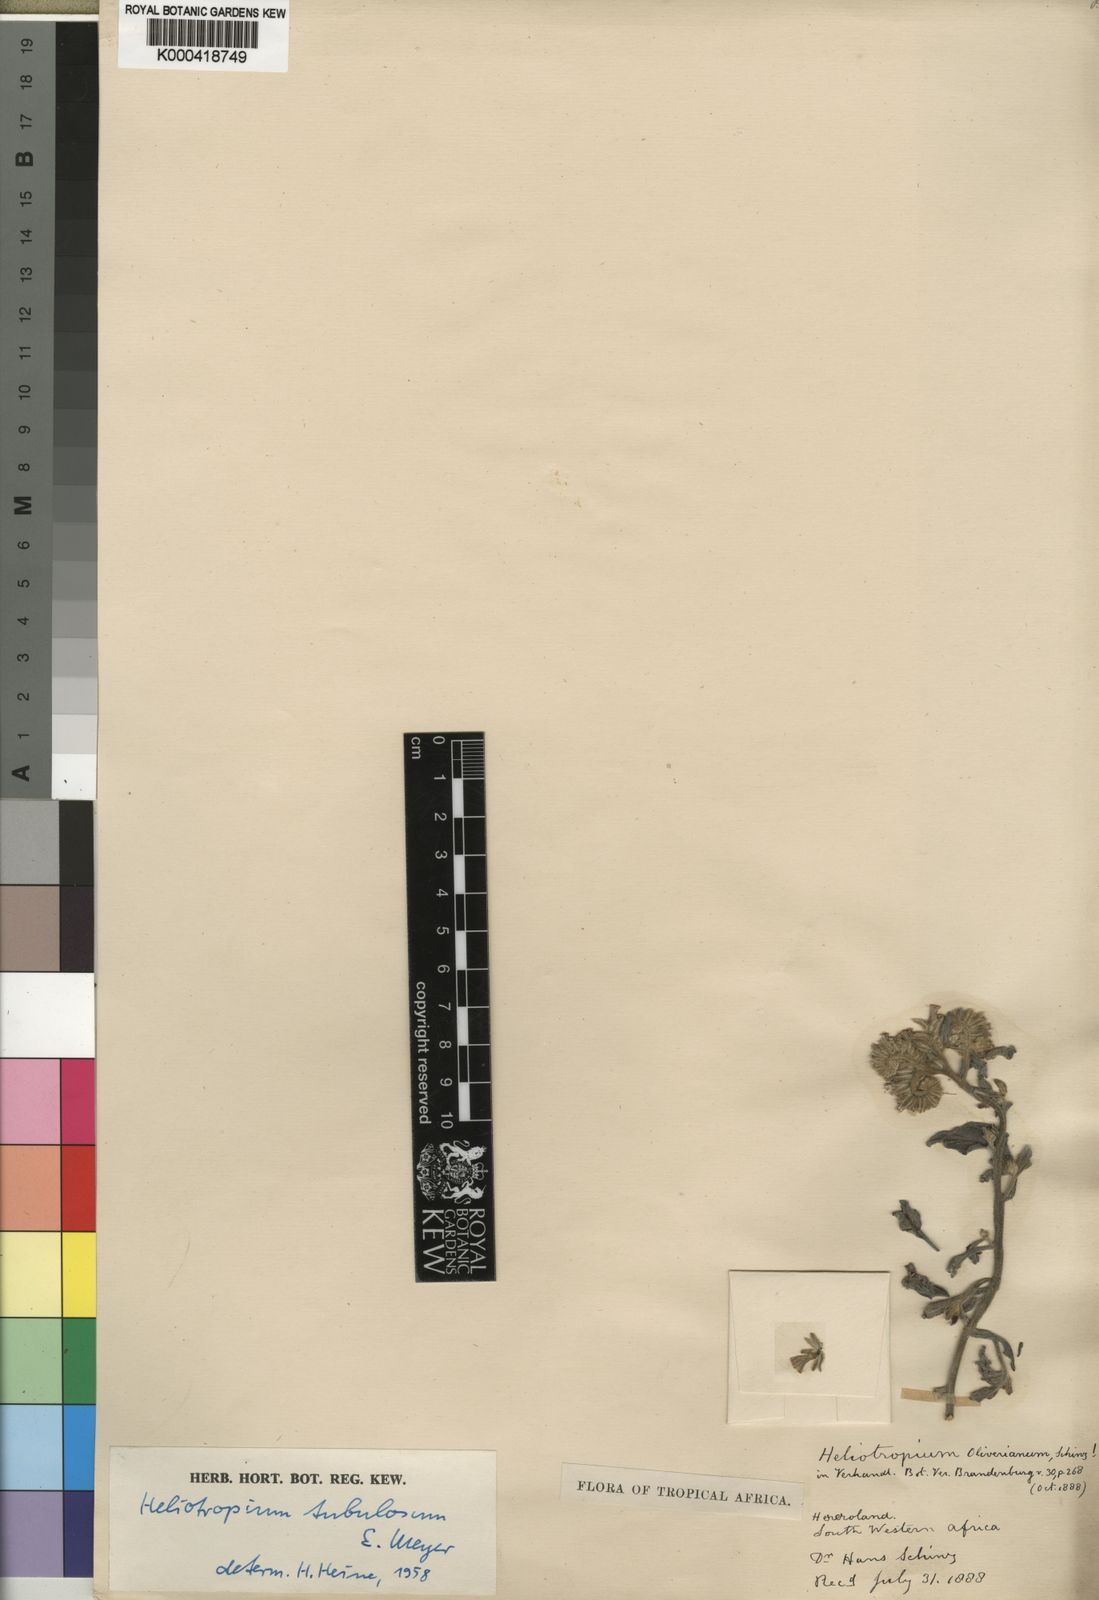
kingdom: Plantae
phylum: Tracheophyta
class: Magnoliopsida
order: Boraginales
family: Heliotropiaceae
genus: Heliotropium
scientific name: Heliotropium tubulosum
